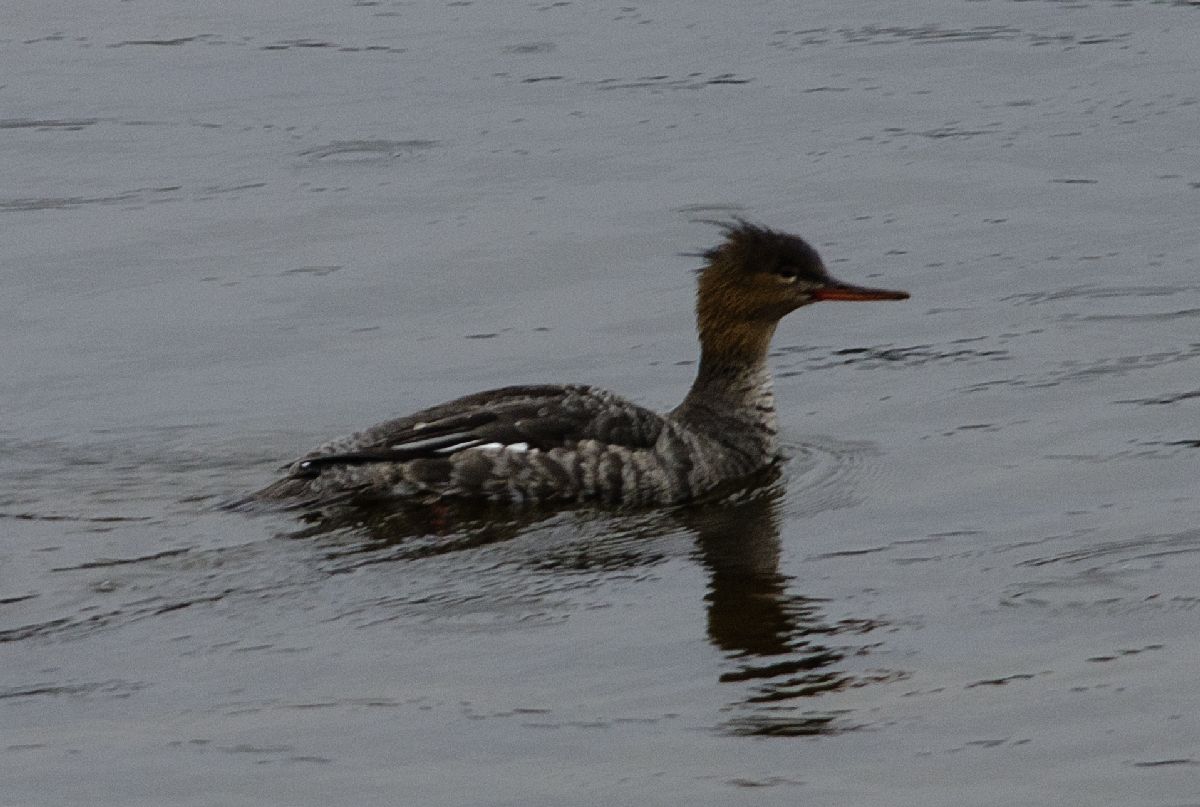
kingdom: Animalia
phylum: Chordata
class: Aves
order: Anseriformes
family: Anatidae
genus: Mergus
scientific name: Mergus serrator
